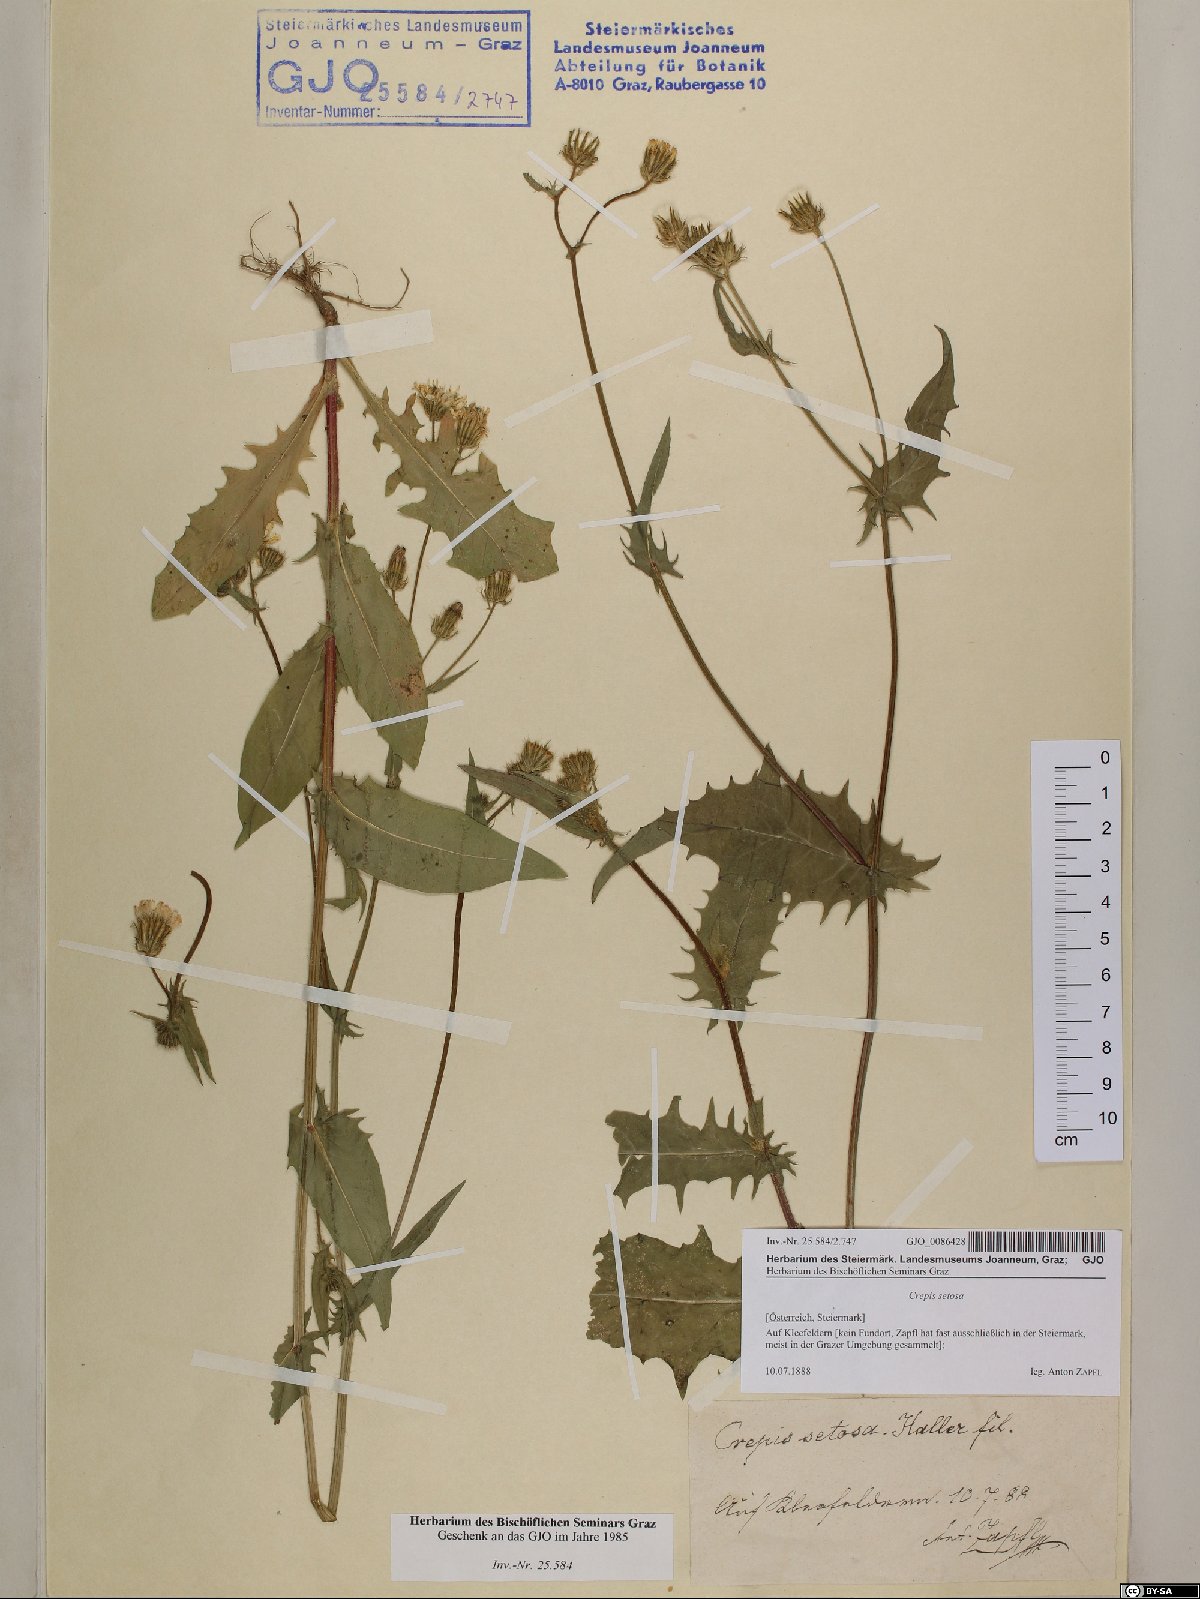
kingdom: Plantae
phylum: Tracheophyta
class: Magnoliopsida
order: Asterales
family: Asteraceae
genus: Crepis
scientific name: Crepis setosa
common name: Bristly hawk's-beard
